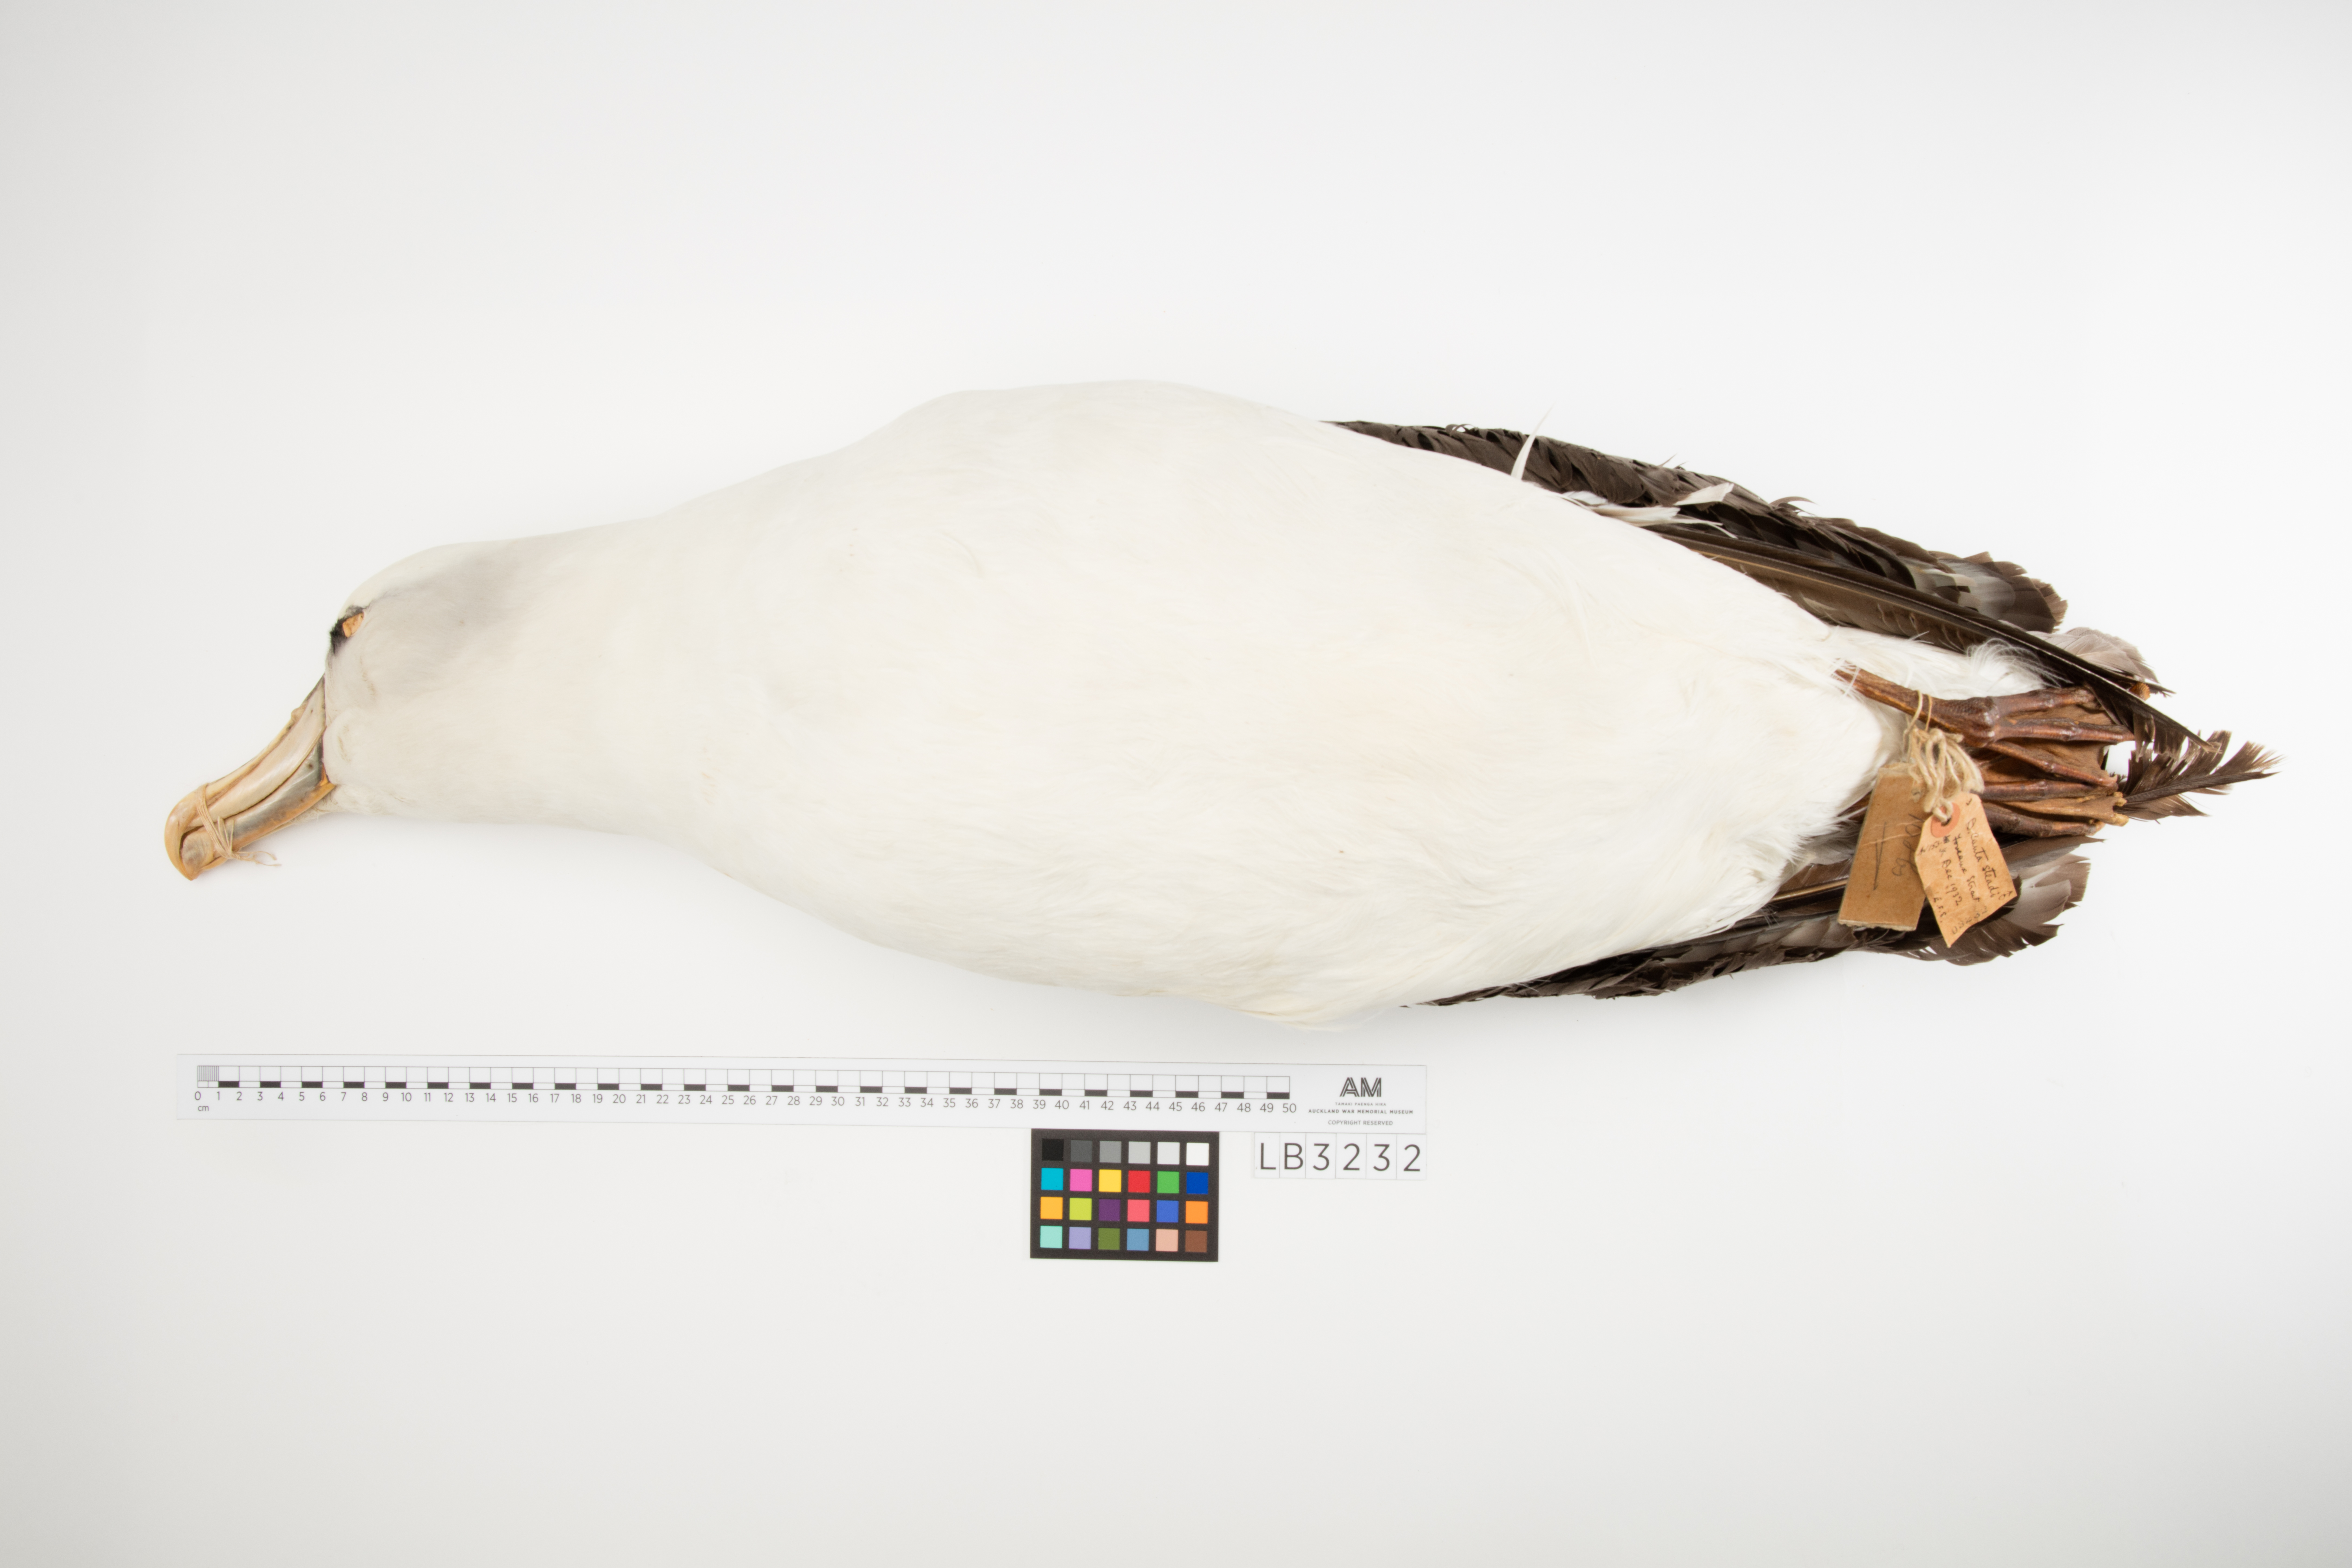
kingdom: Animalia
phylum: Chordata
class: Aves
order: Procellariiformes
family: Diomedeidae
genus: Thalassarche
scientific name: Thalassarche cauta
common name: Shy albatross
